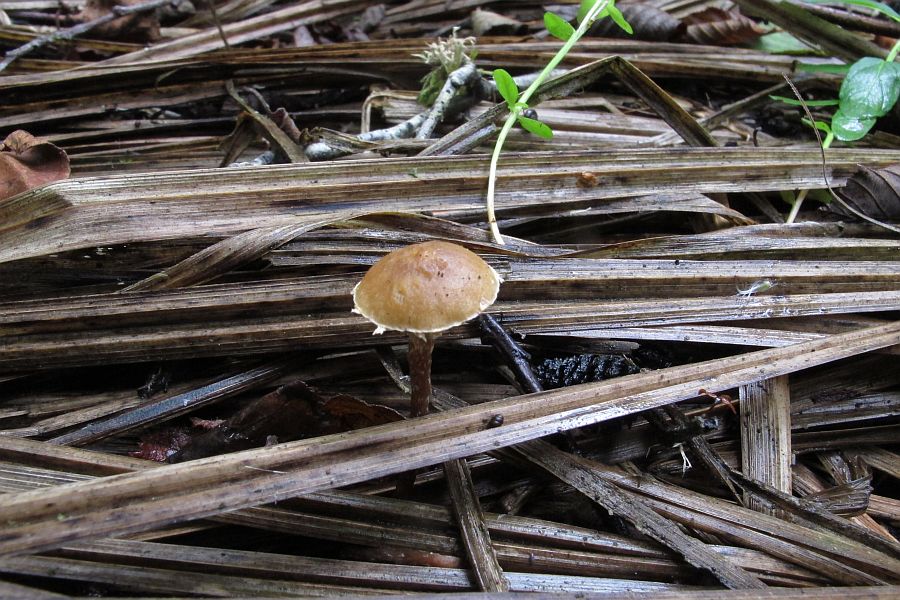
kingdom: Fungi
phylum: Basidiomycota
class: Agaricomycetes
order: Agaricales
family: Strophariaceae
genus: Deconica
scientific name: Deconica inquilina
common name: græs-stråhat
